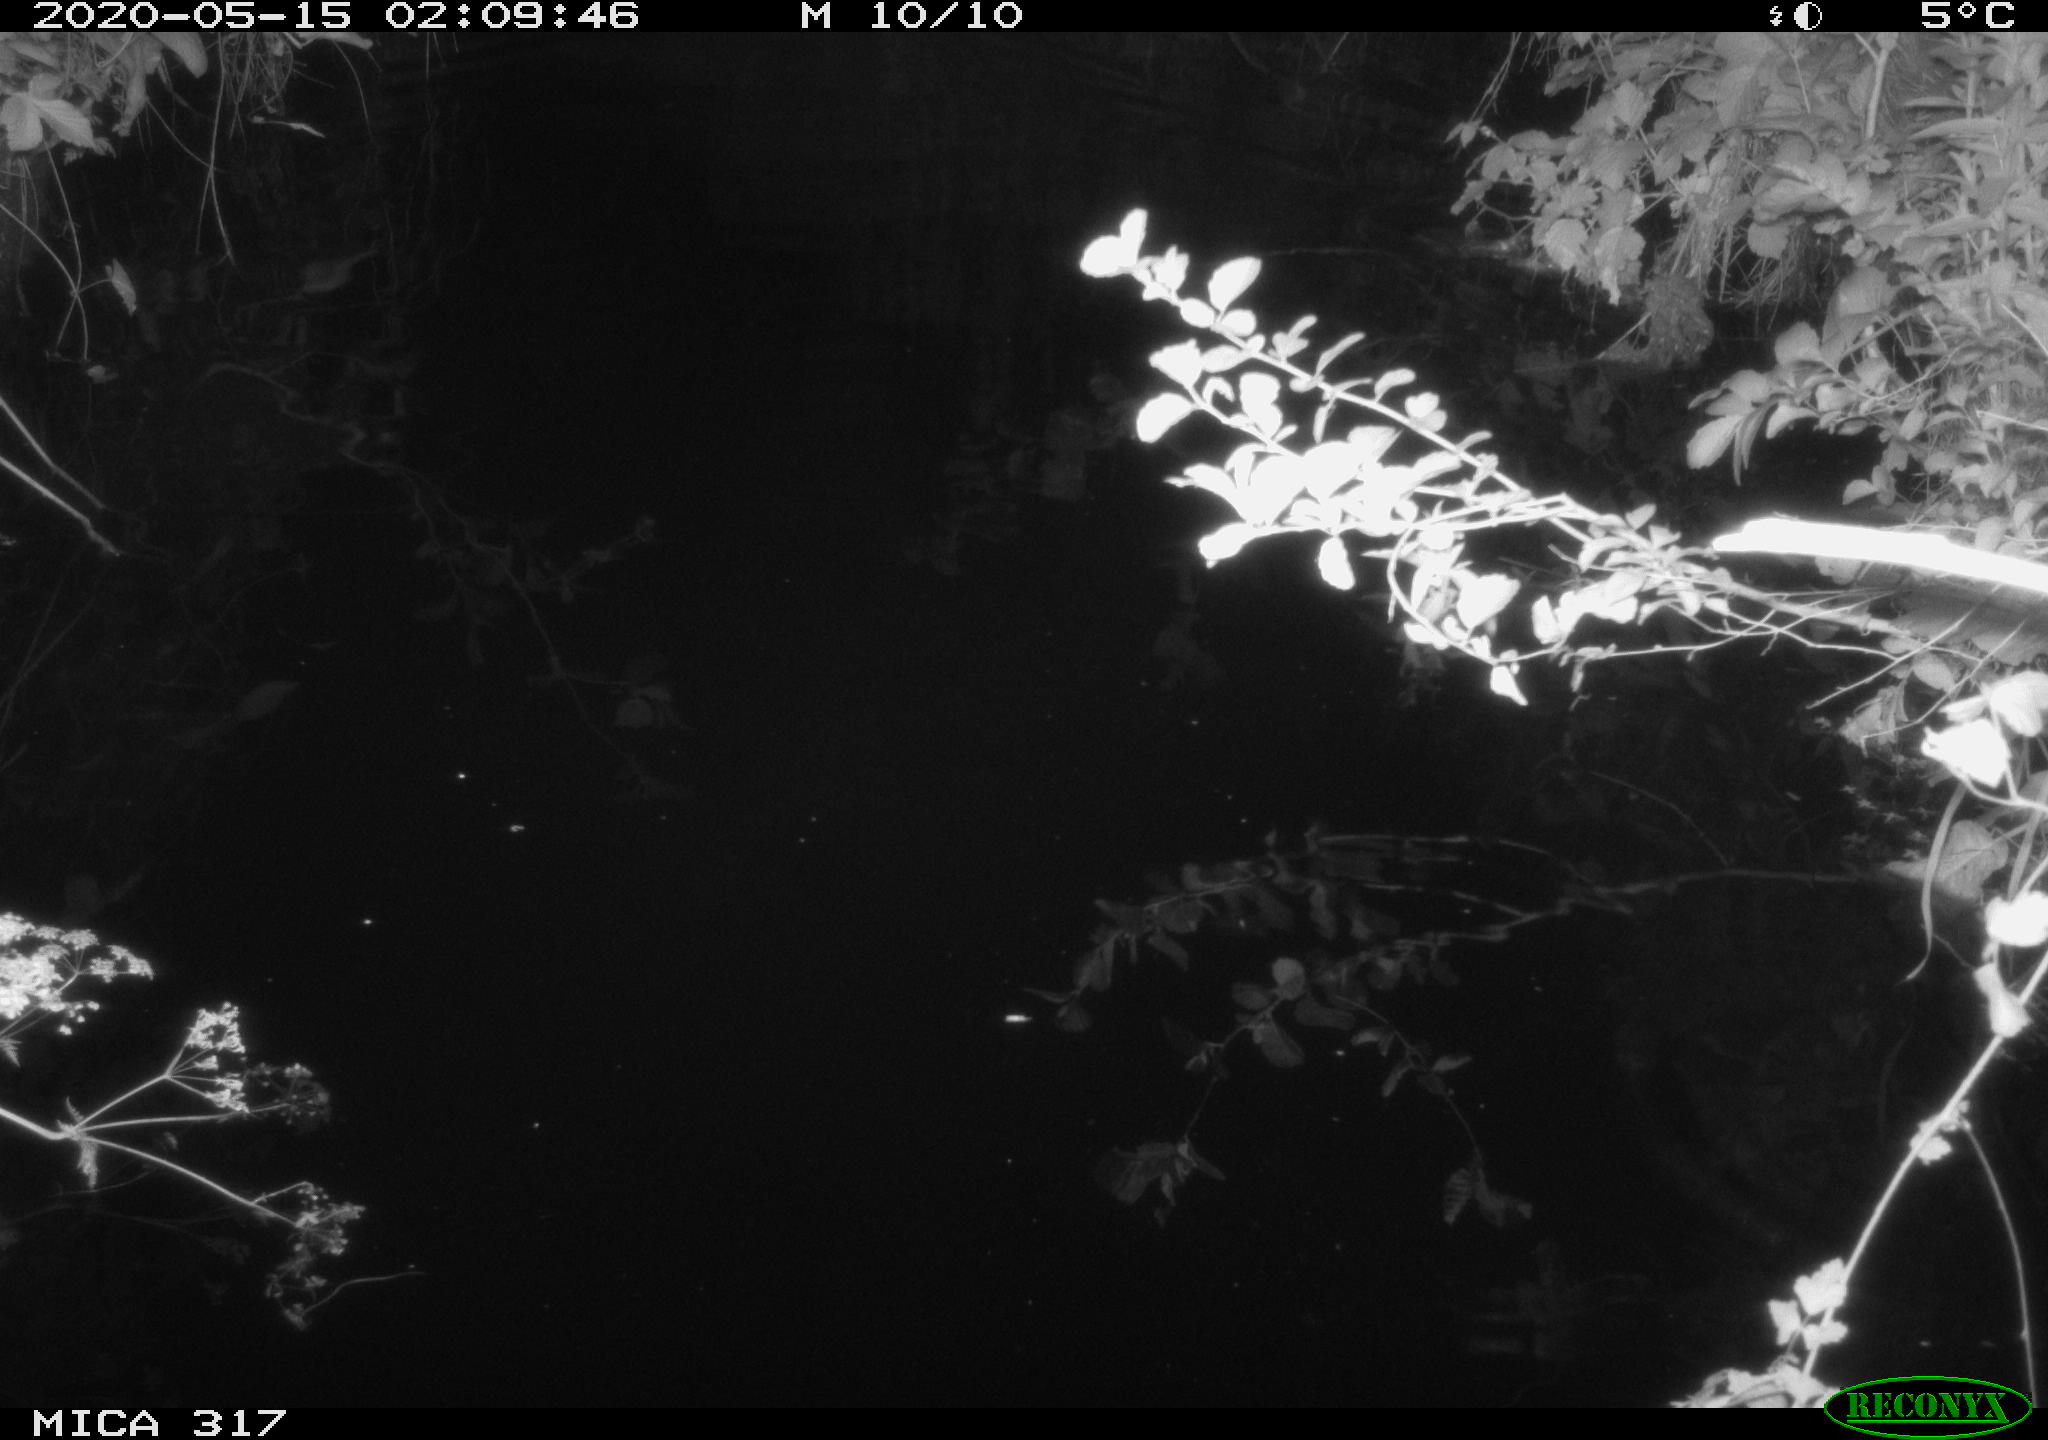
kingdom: Animalia
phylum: Chordata
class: Aves
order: Anseriformes
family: Anatidae
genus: Anas
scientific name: Anas platyrhynchos
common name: Mallard
